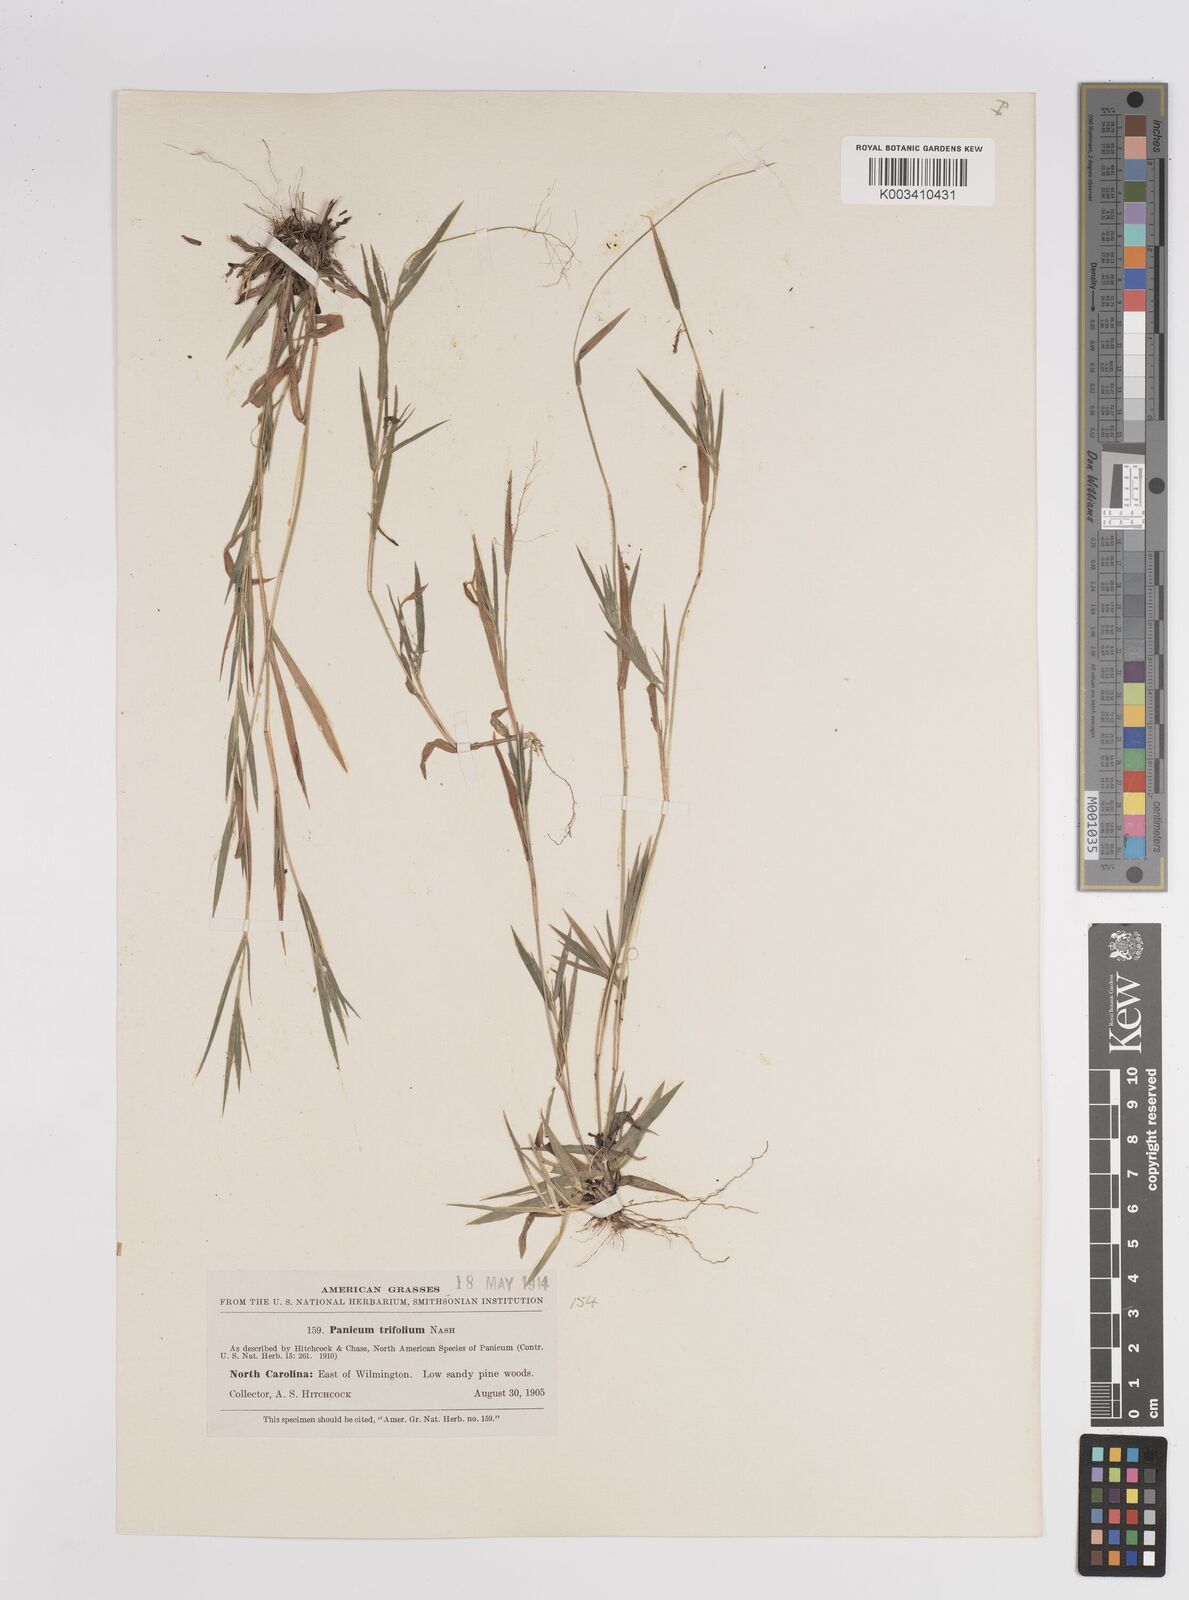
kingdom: Plantae
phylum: Tracheophyta
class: Liliopsida
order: Poales
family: Poaceae
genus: Dichanthelium
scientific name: Dichanthelium trifolium
